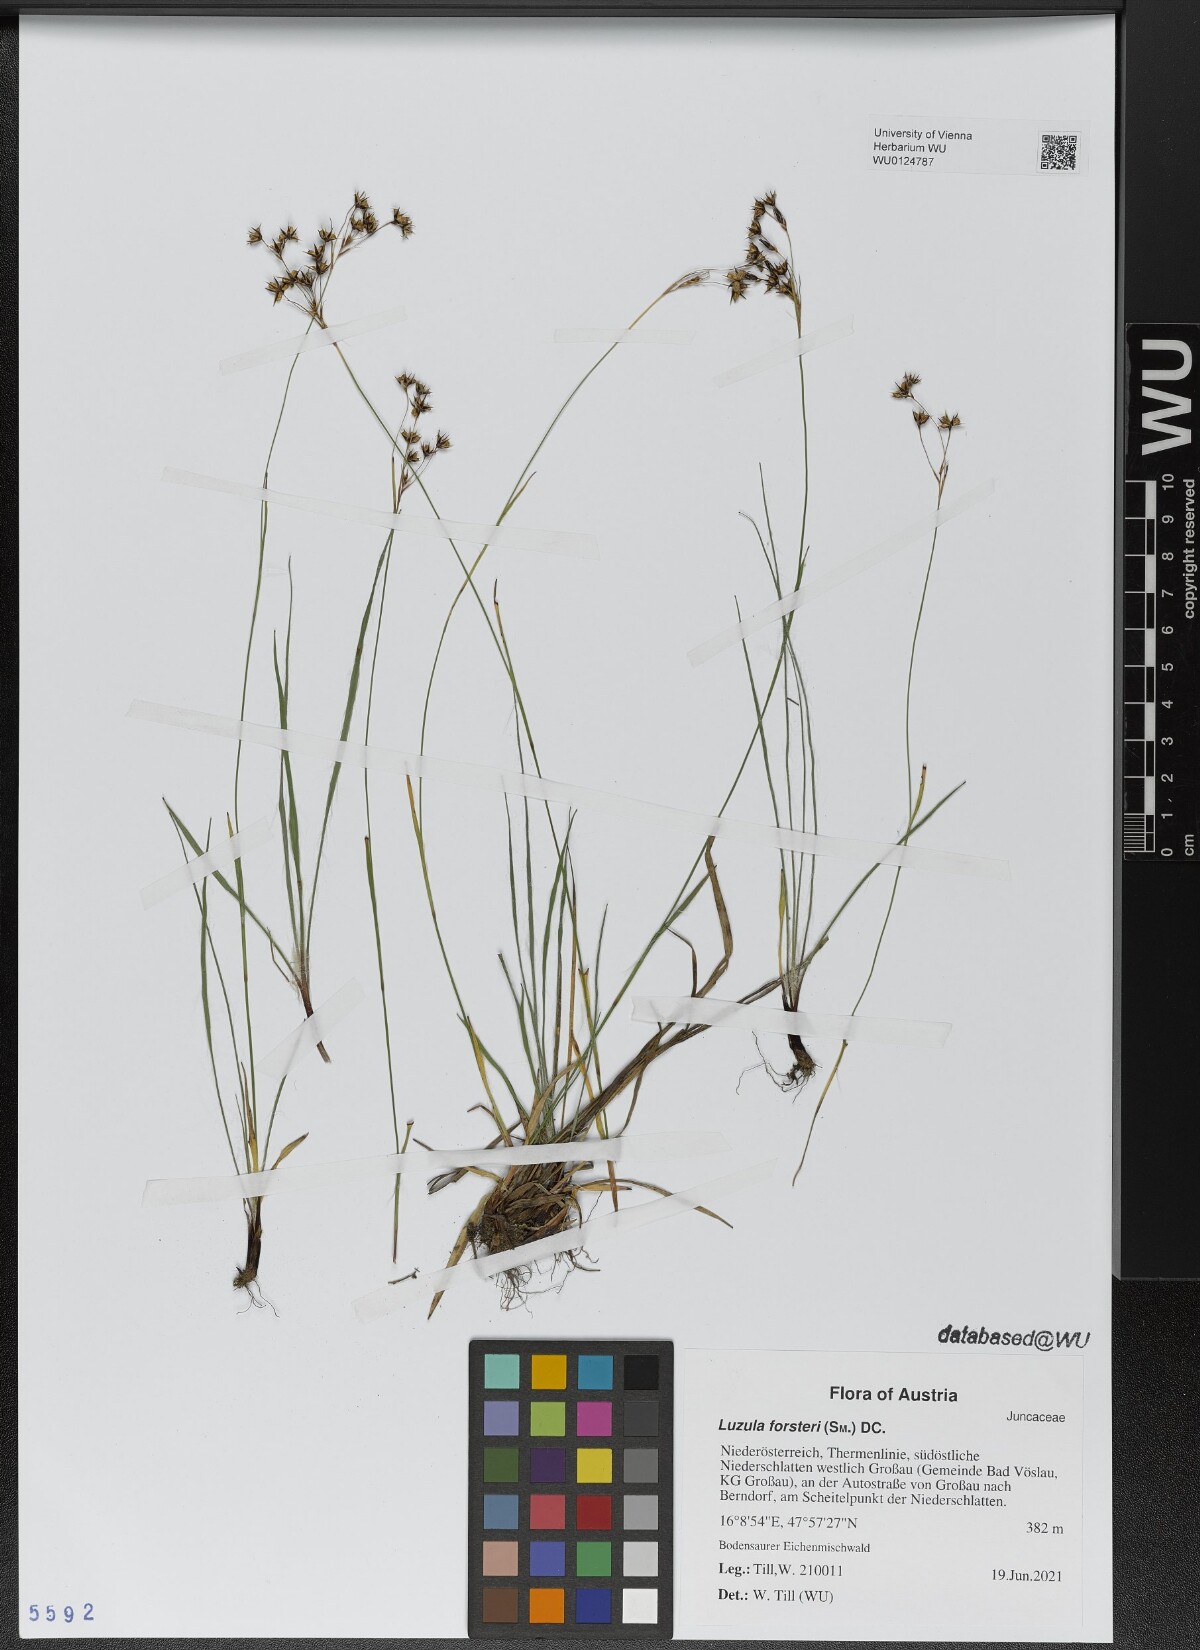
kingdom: Plantae
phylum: Tracheophyta
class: Liliopsida
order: Poales
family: Juncaceae
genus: Luzula
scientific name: Luzula forsteri
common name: Southern wood-rush
